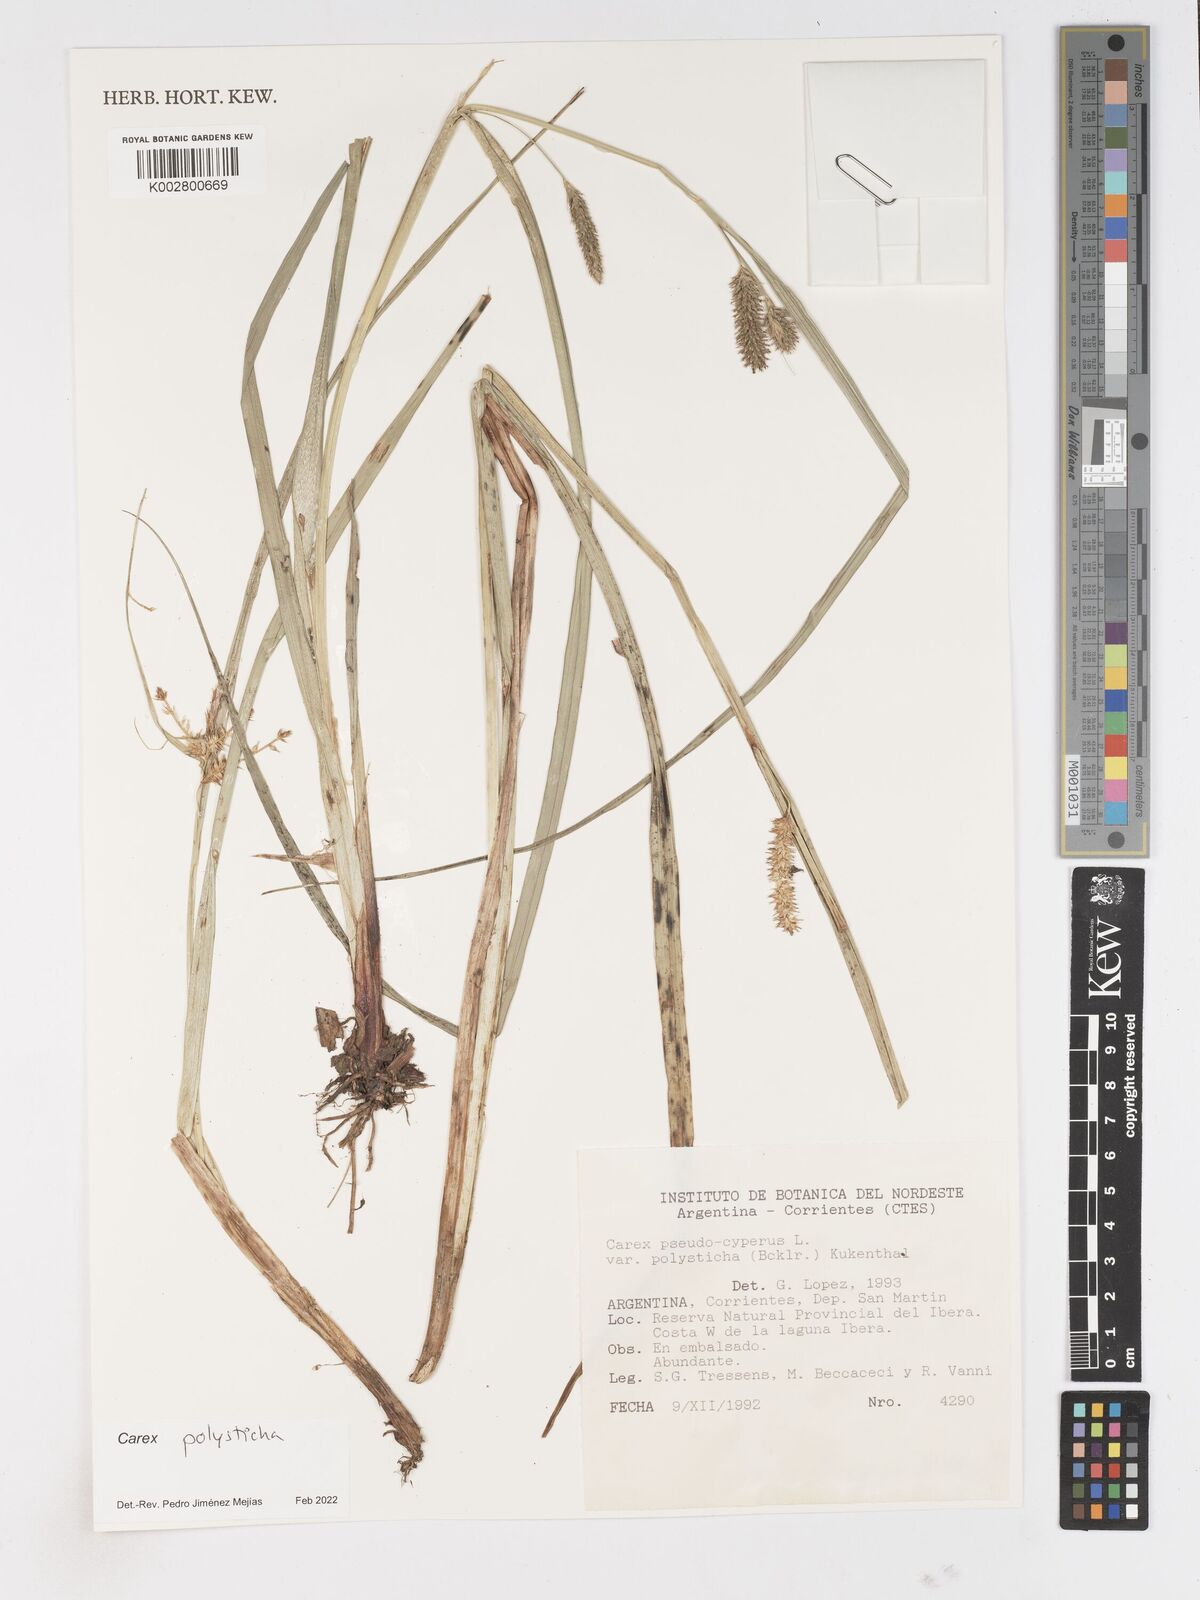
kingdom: Plantae
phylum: Tracheophyta
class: Liliopsida
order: Poales
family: Cyperaceae
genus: Carex
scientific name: Carex polysticha
